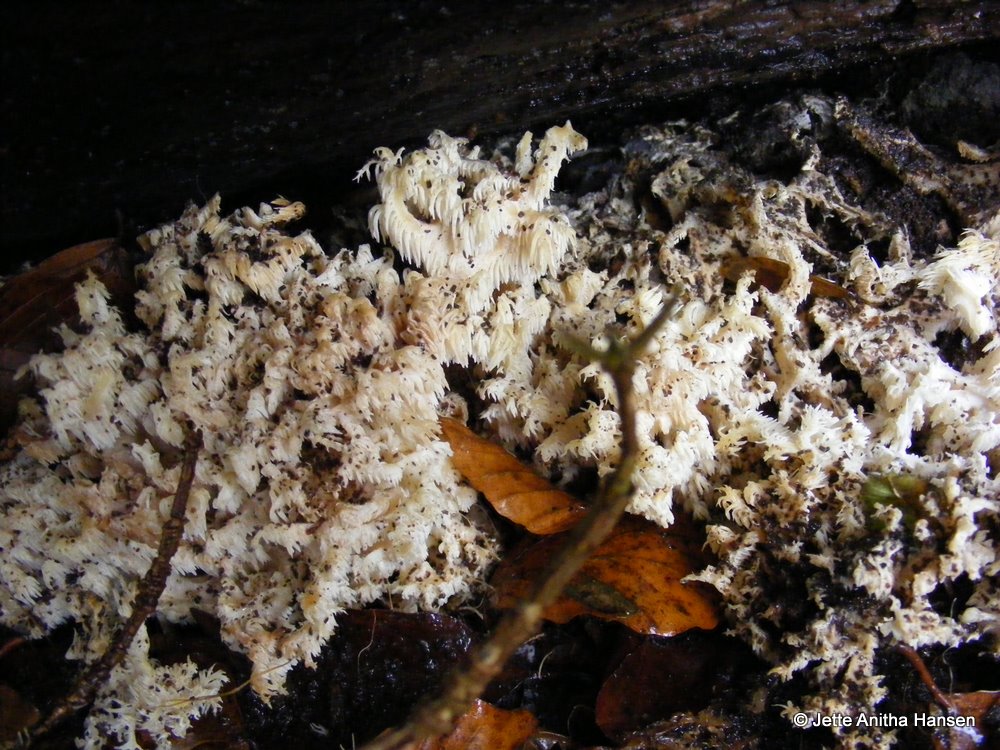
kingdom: Fungi
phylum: Basidiomycota
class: Agaricomycetes
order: Russulales
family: Hericiaceae
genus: Hericium
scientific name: Hericium coralloides
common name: koralpigsvamp
